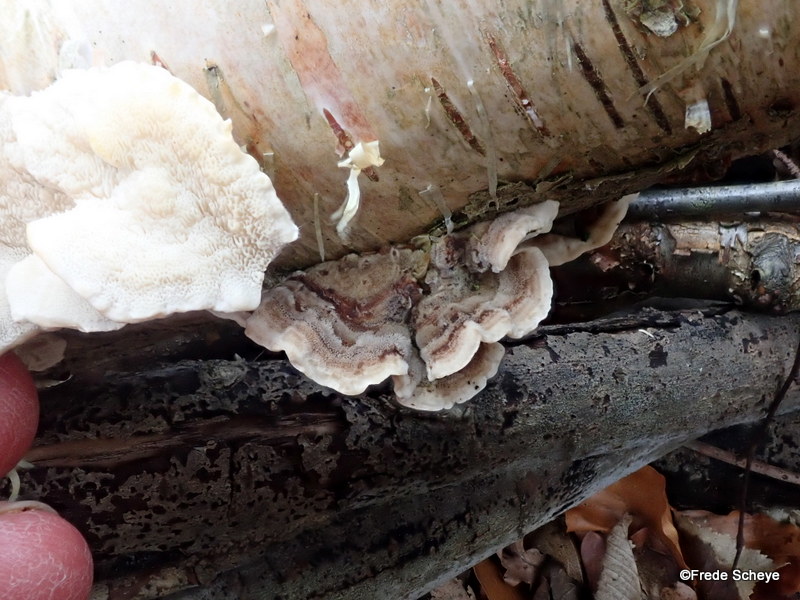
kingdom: Fungi
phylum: Basidiomycota
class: Agaricomycetes
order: Polyporales
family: Polyporaceae
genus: Trametes
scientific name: Trametes ochracea
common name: bæltet læderporesvamp
